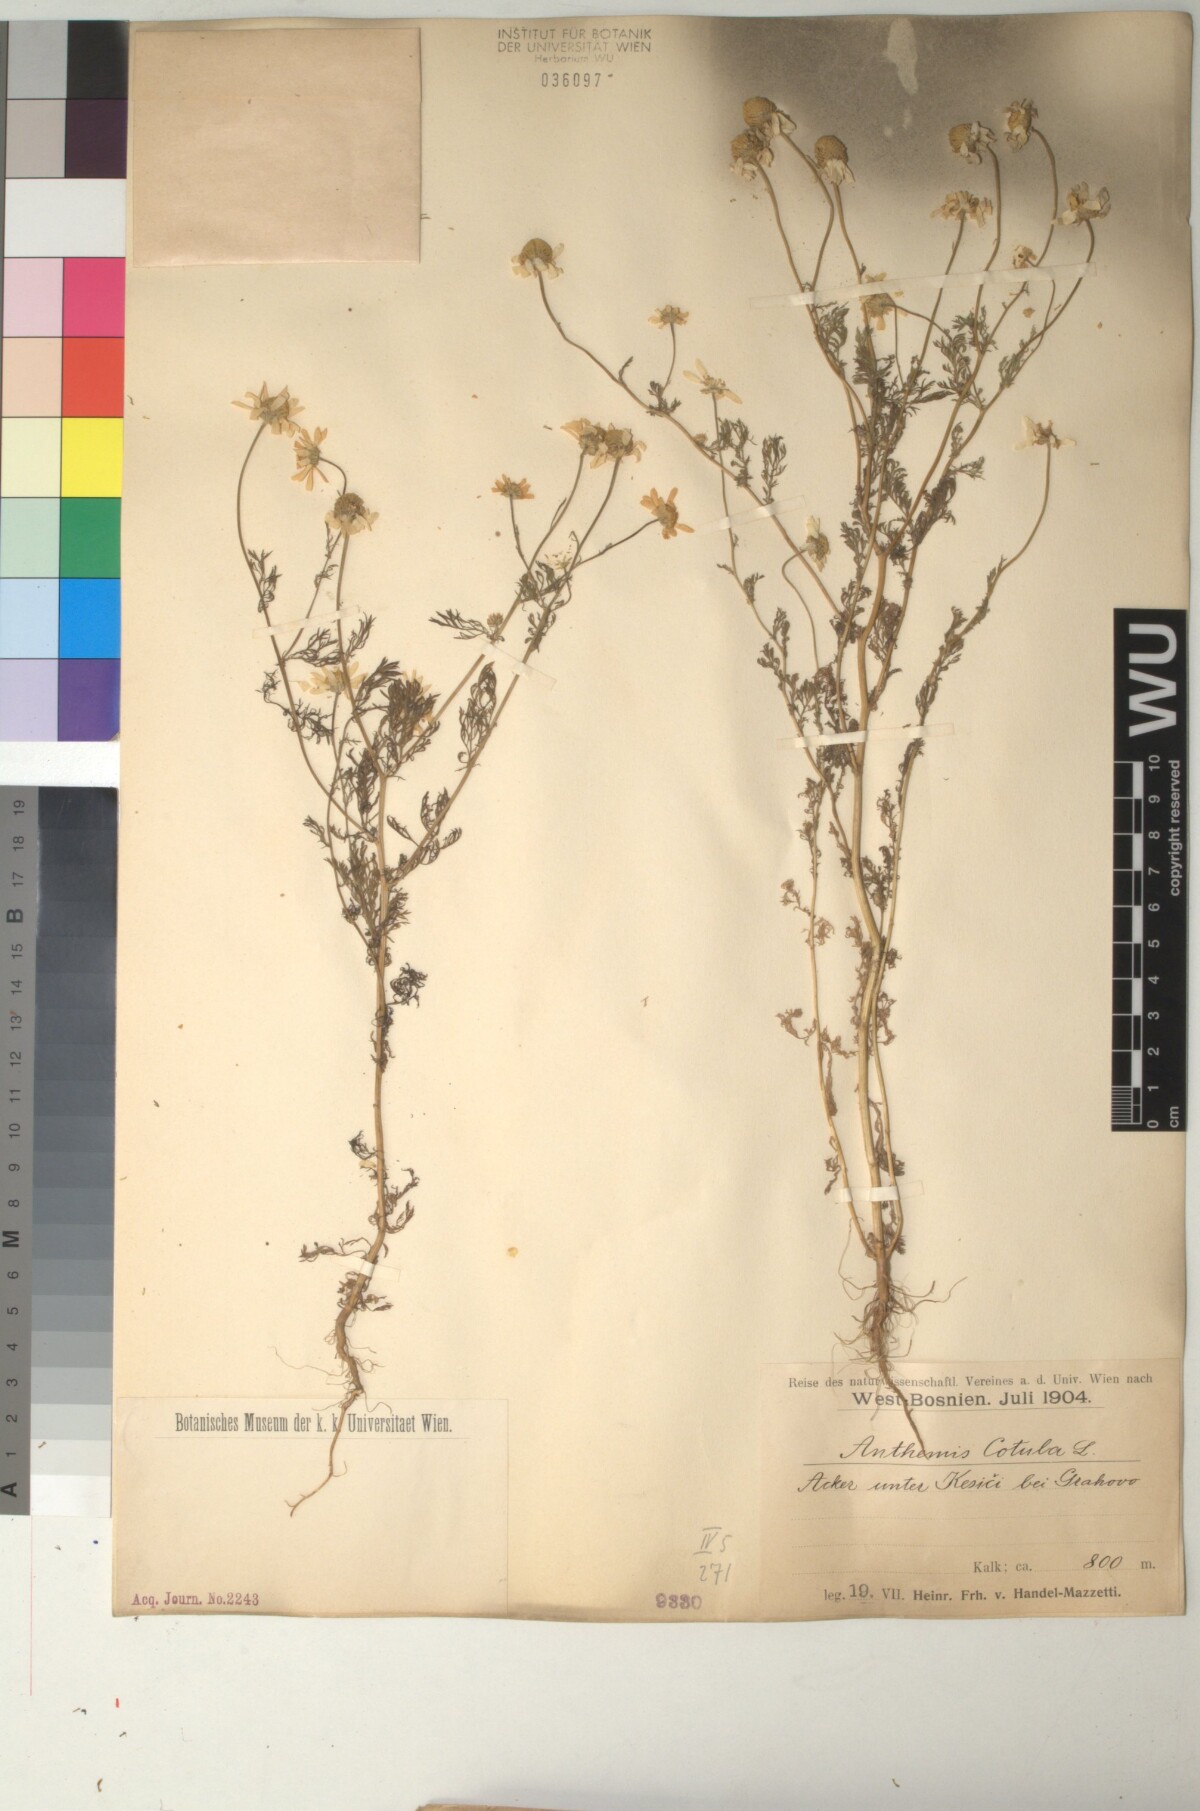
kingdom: Plantae
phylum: Tracheophyta
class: Magnoliopsida
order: Asterales
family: Asteraceae
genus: Anthemis
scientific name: Anthemis cotula
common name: Stinking chamomile
